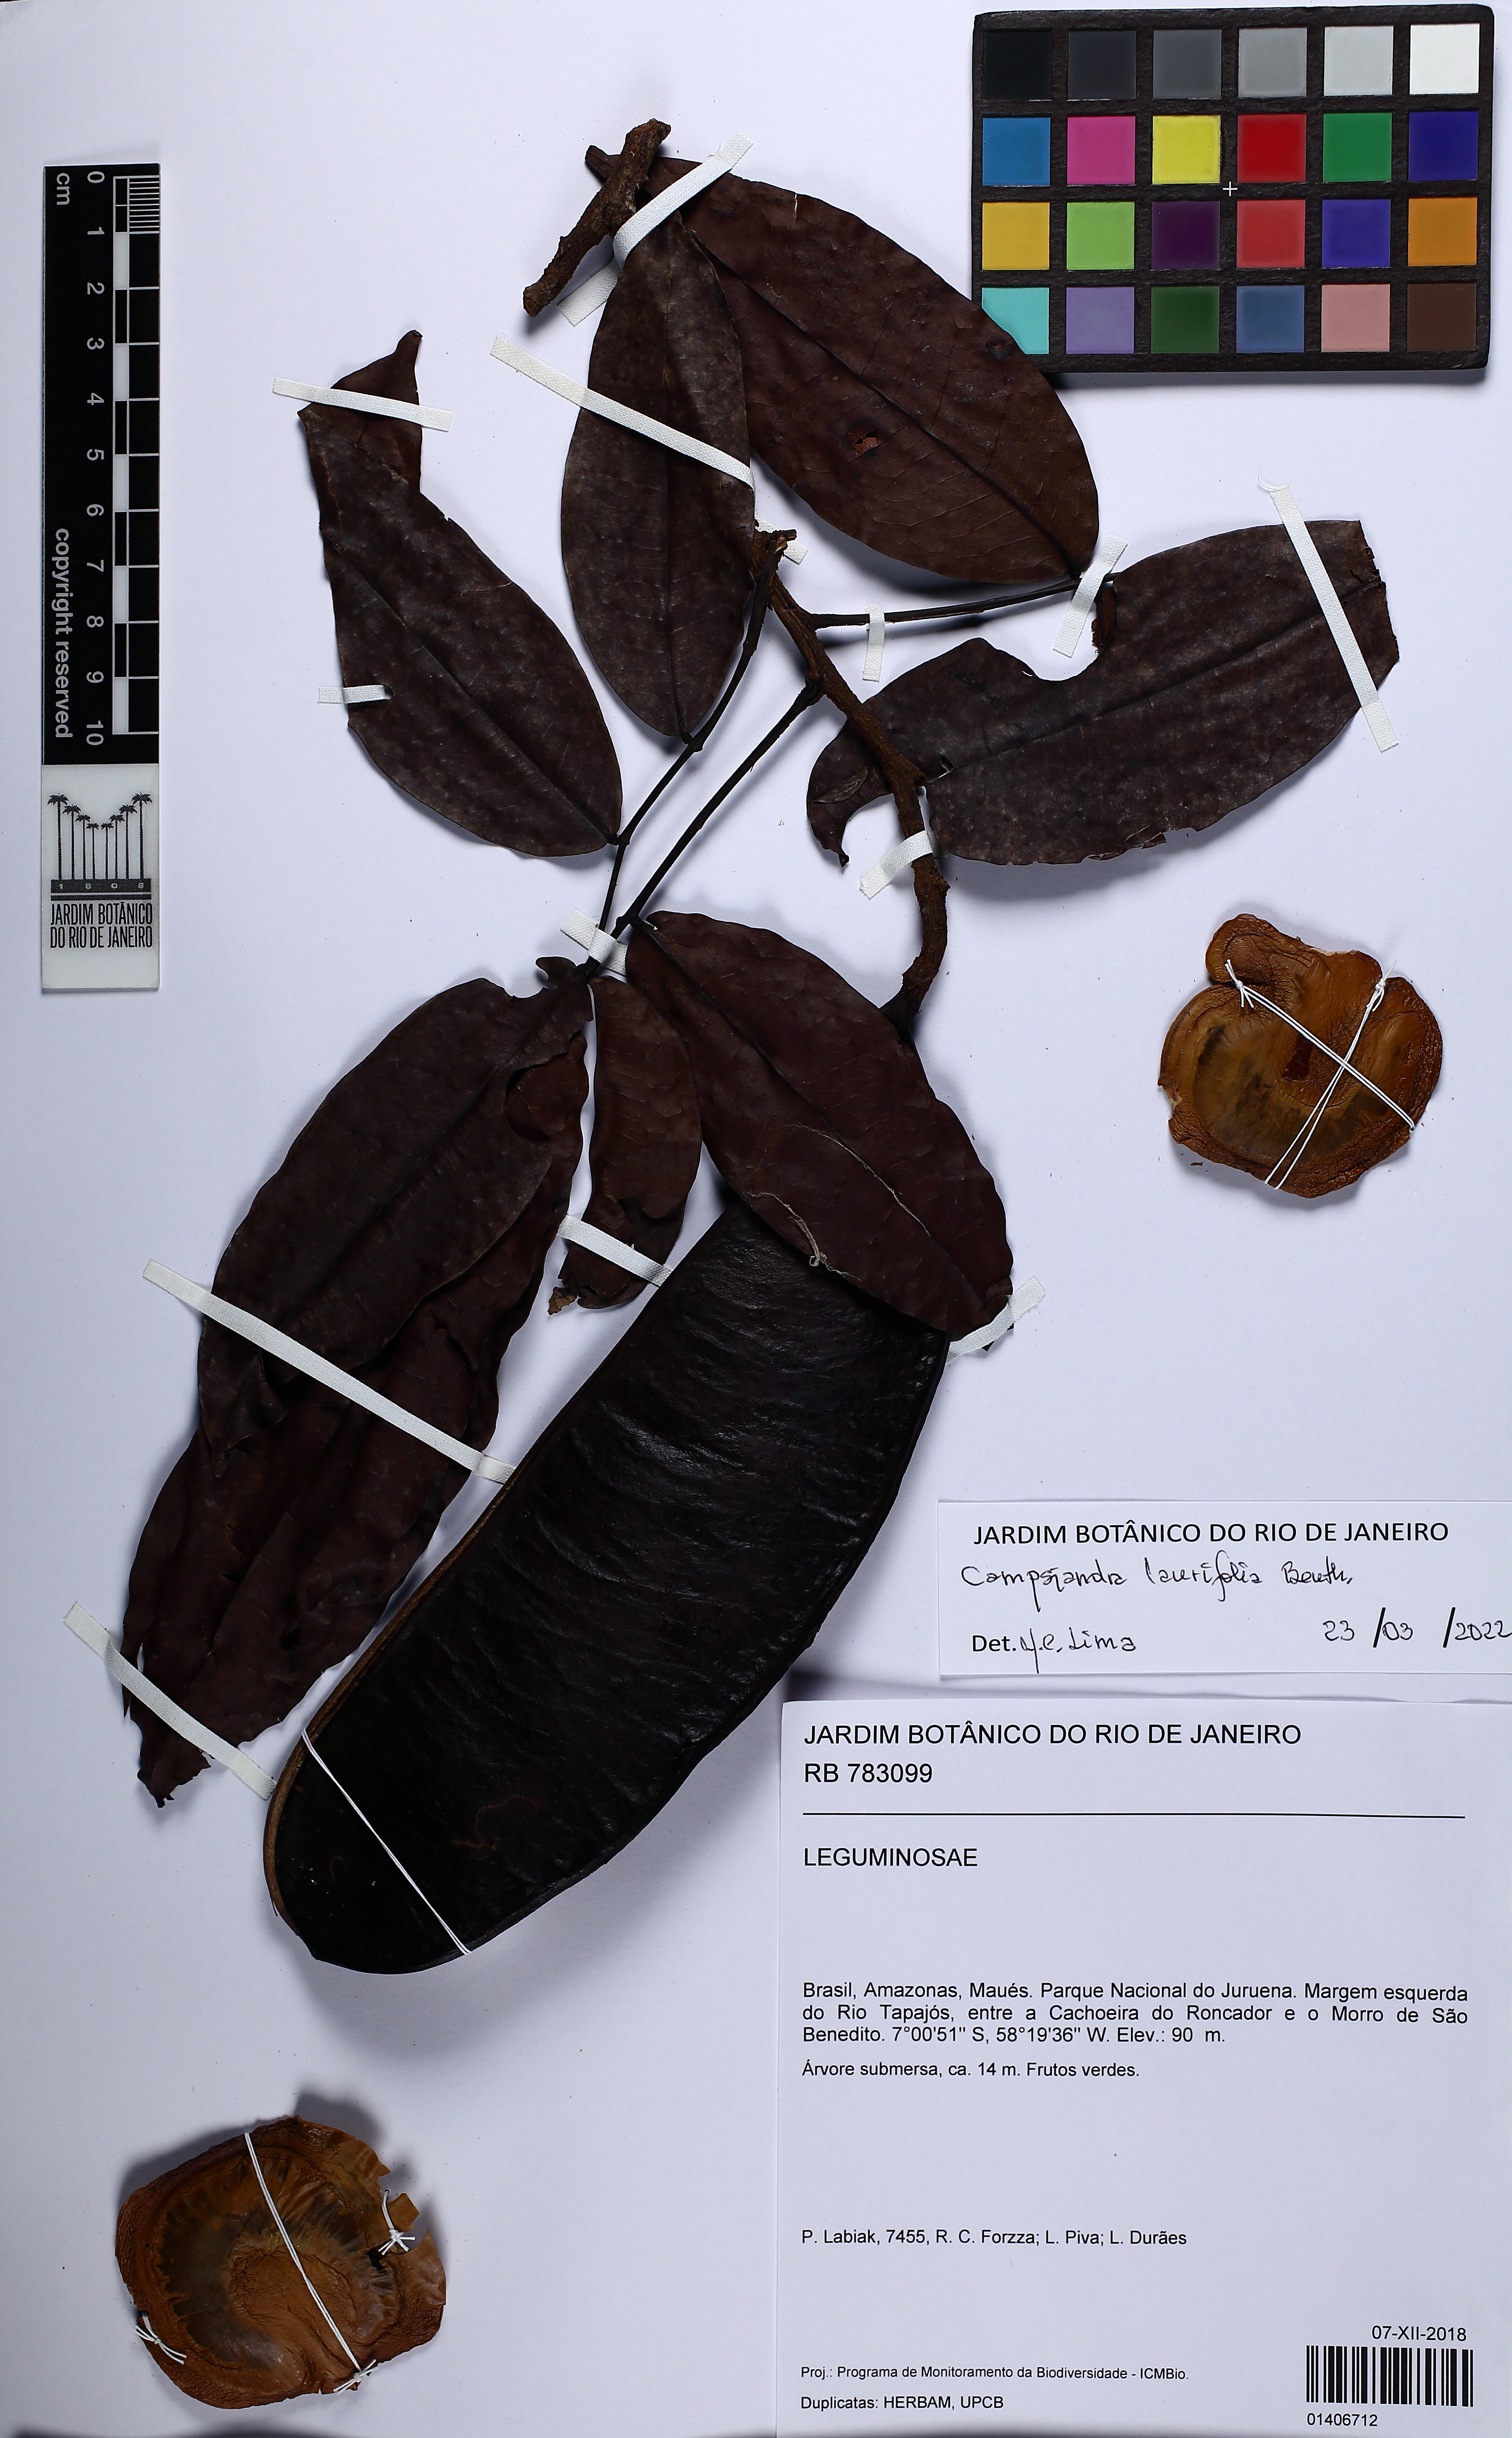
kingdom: Plantae
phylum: Tracheophyta
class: Magnoliopsida
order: Fabales
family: Fabaceae
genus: Campsiandra
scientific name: Campsiandra laurifolia
